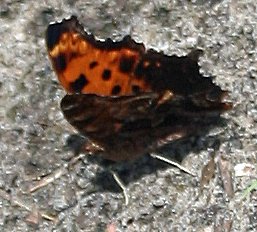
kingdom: Animalia
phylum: Arthropoda
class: Insecta
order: Lepidoptera
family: Nymphalidae
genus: Polygonia
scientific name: Polygonia comma
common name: Eastern Comma
